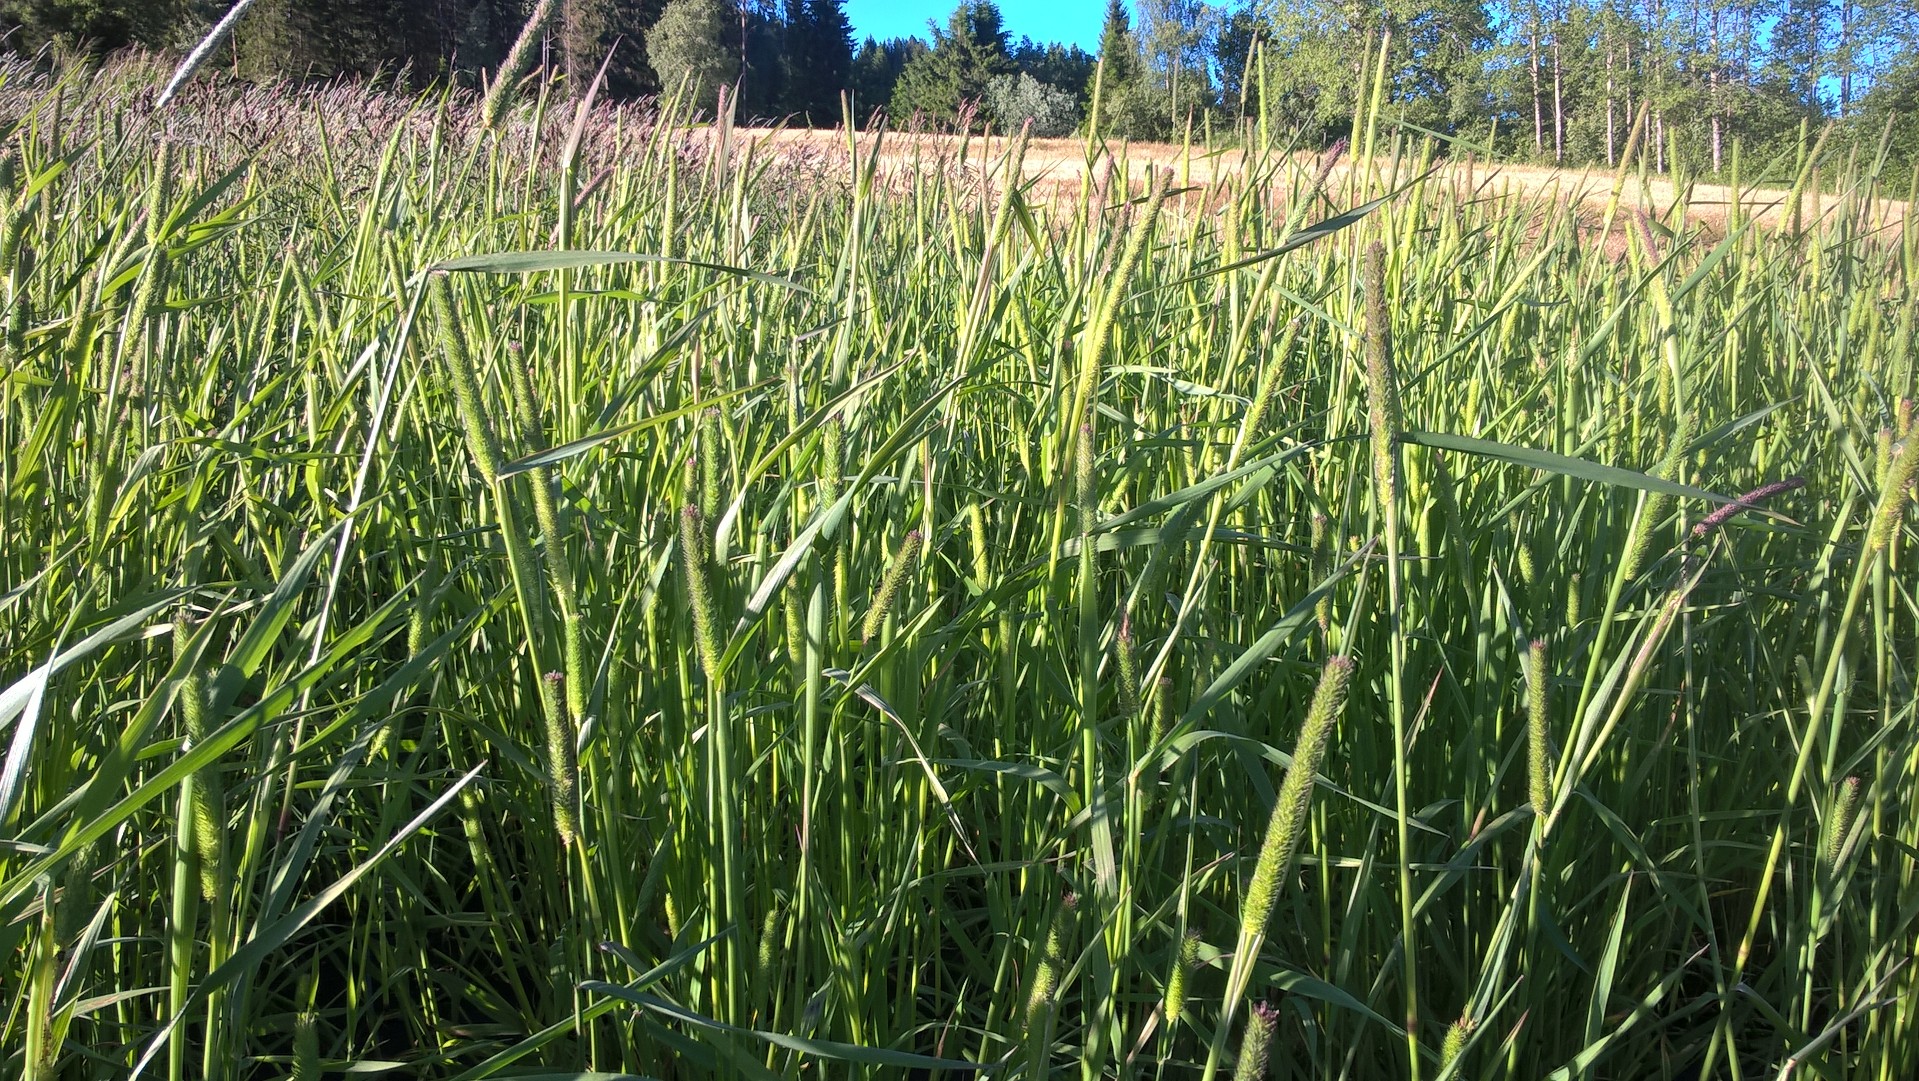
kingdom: Plantae
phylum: Tracheophyta
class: Liliopsida
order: Poales
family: Poaceae
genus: Phleum
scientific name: Phleum pratense
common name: Timothy grass
